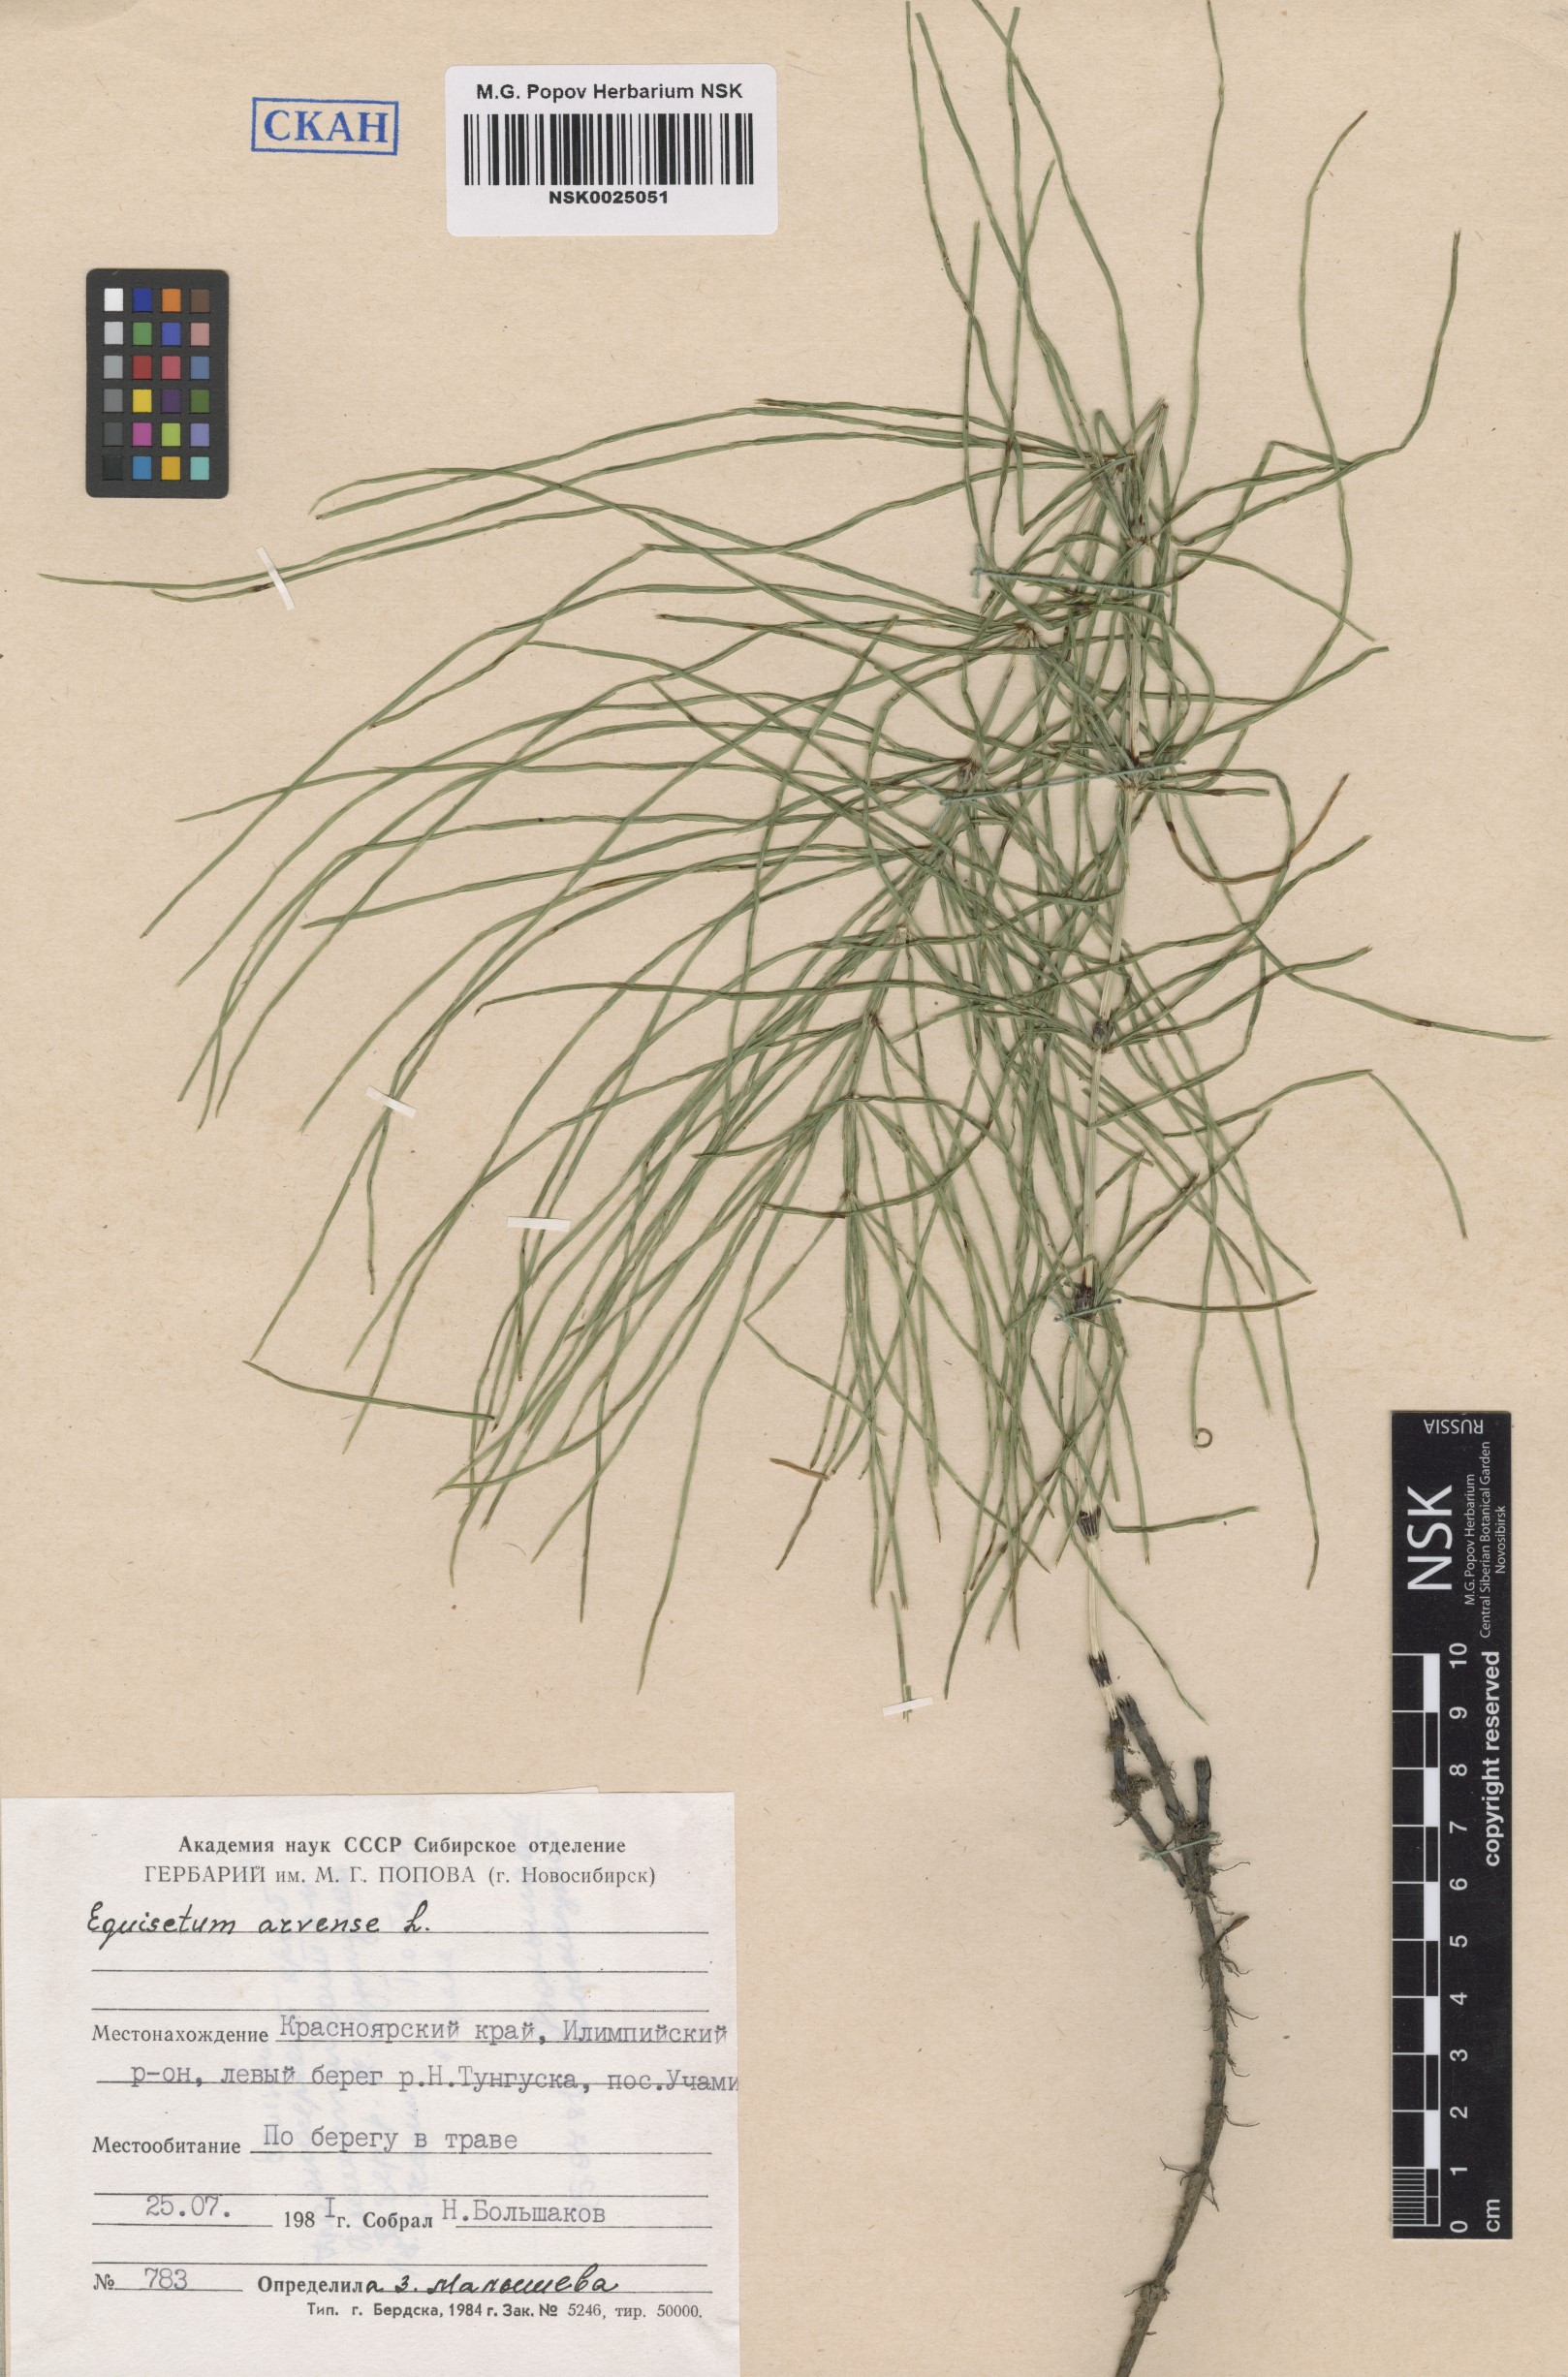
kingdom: Plantae
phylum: Tracheophyta
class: Polypodiopsida
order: Equisetales
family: Equisetaceae
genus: Equisetum
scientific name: Equisetum arvense
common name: Field horsetail
